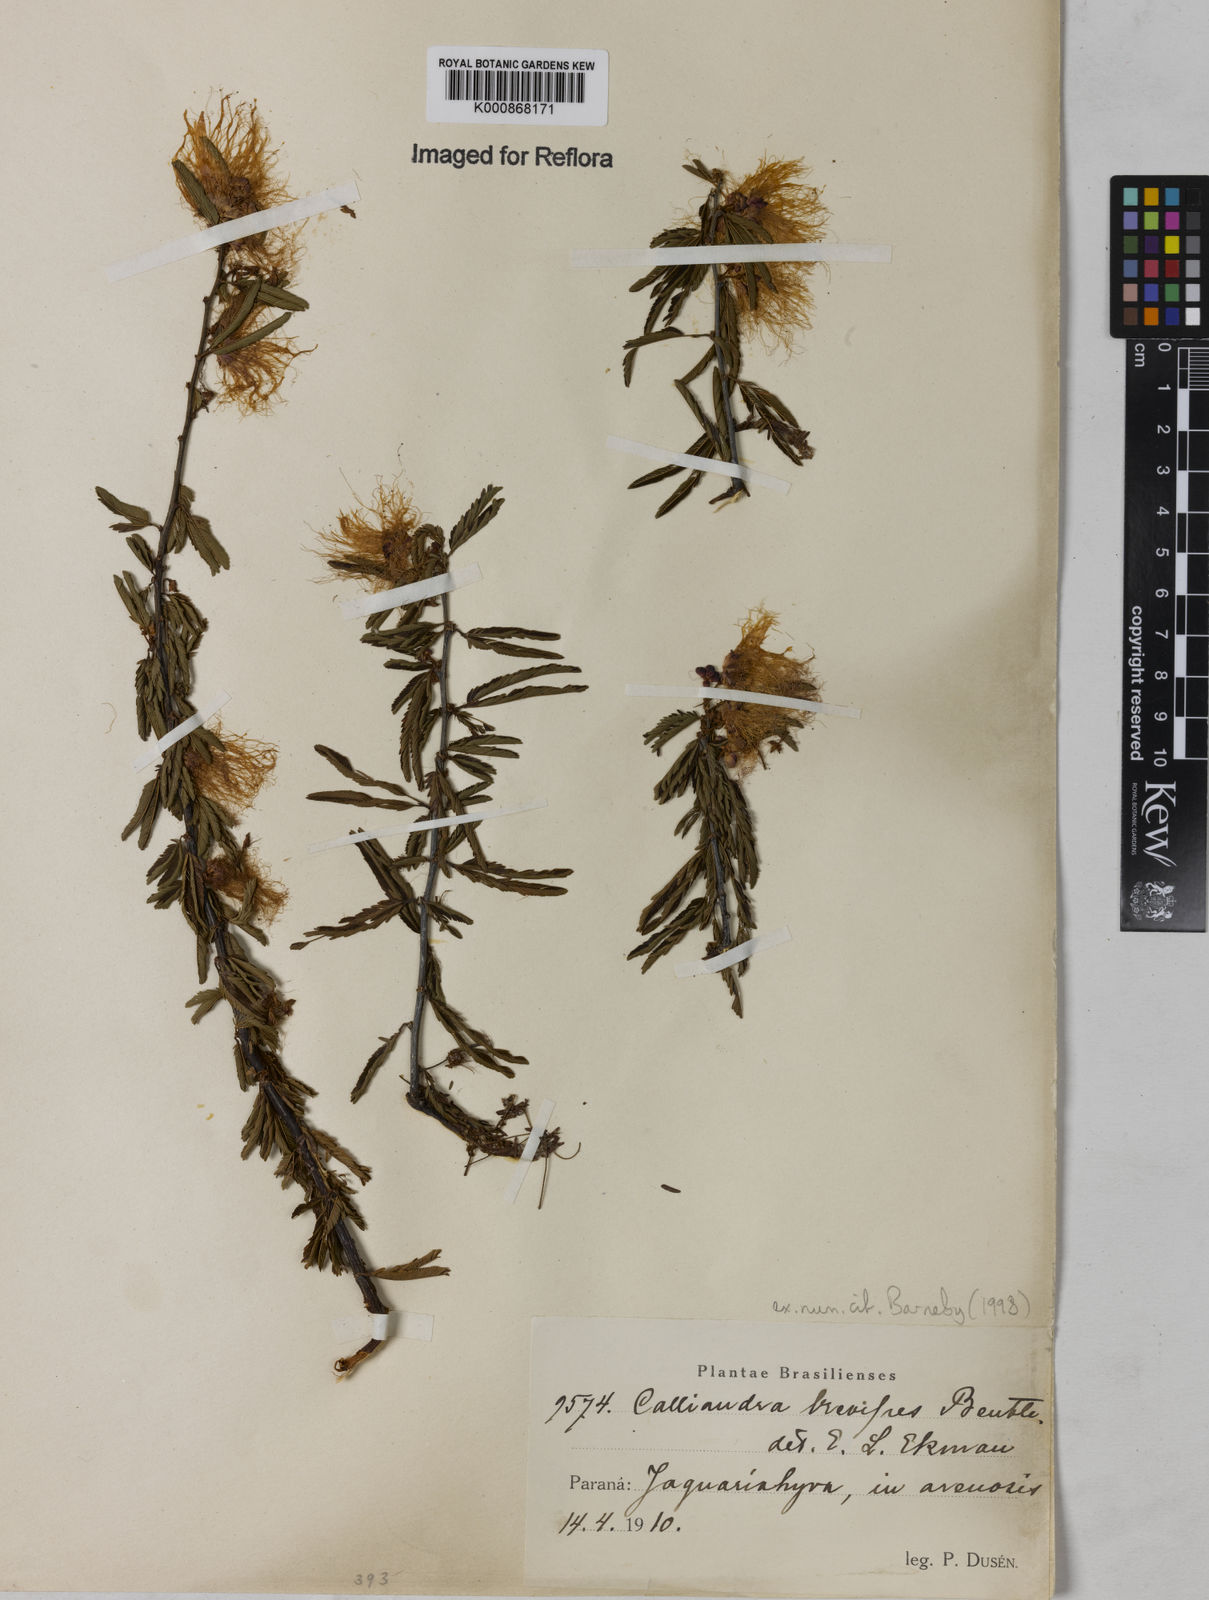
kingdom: Plantae
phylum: Tracheophyta
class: Magnoliopsida
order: Fabales
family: Fabaceae
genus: Calliandra
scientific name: Calliandra selloi
